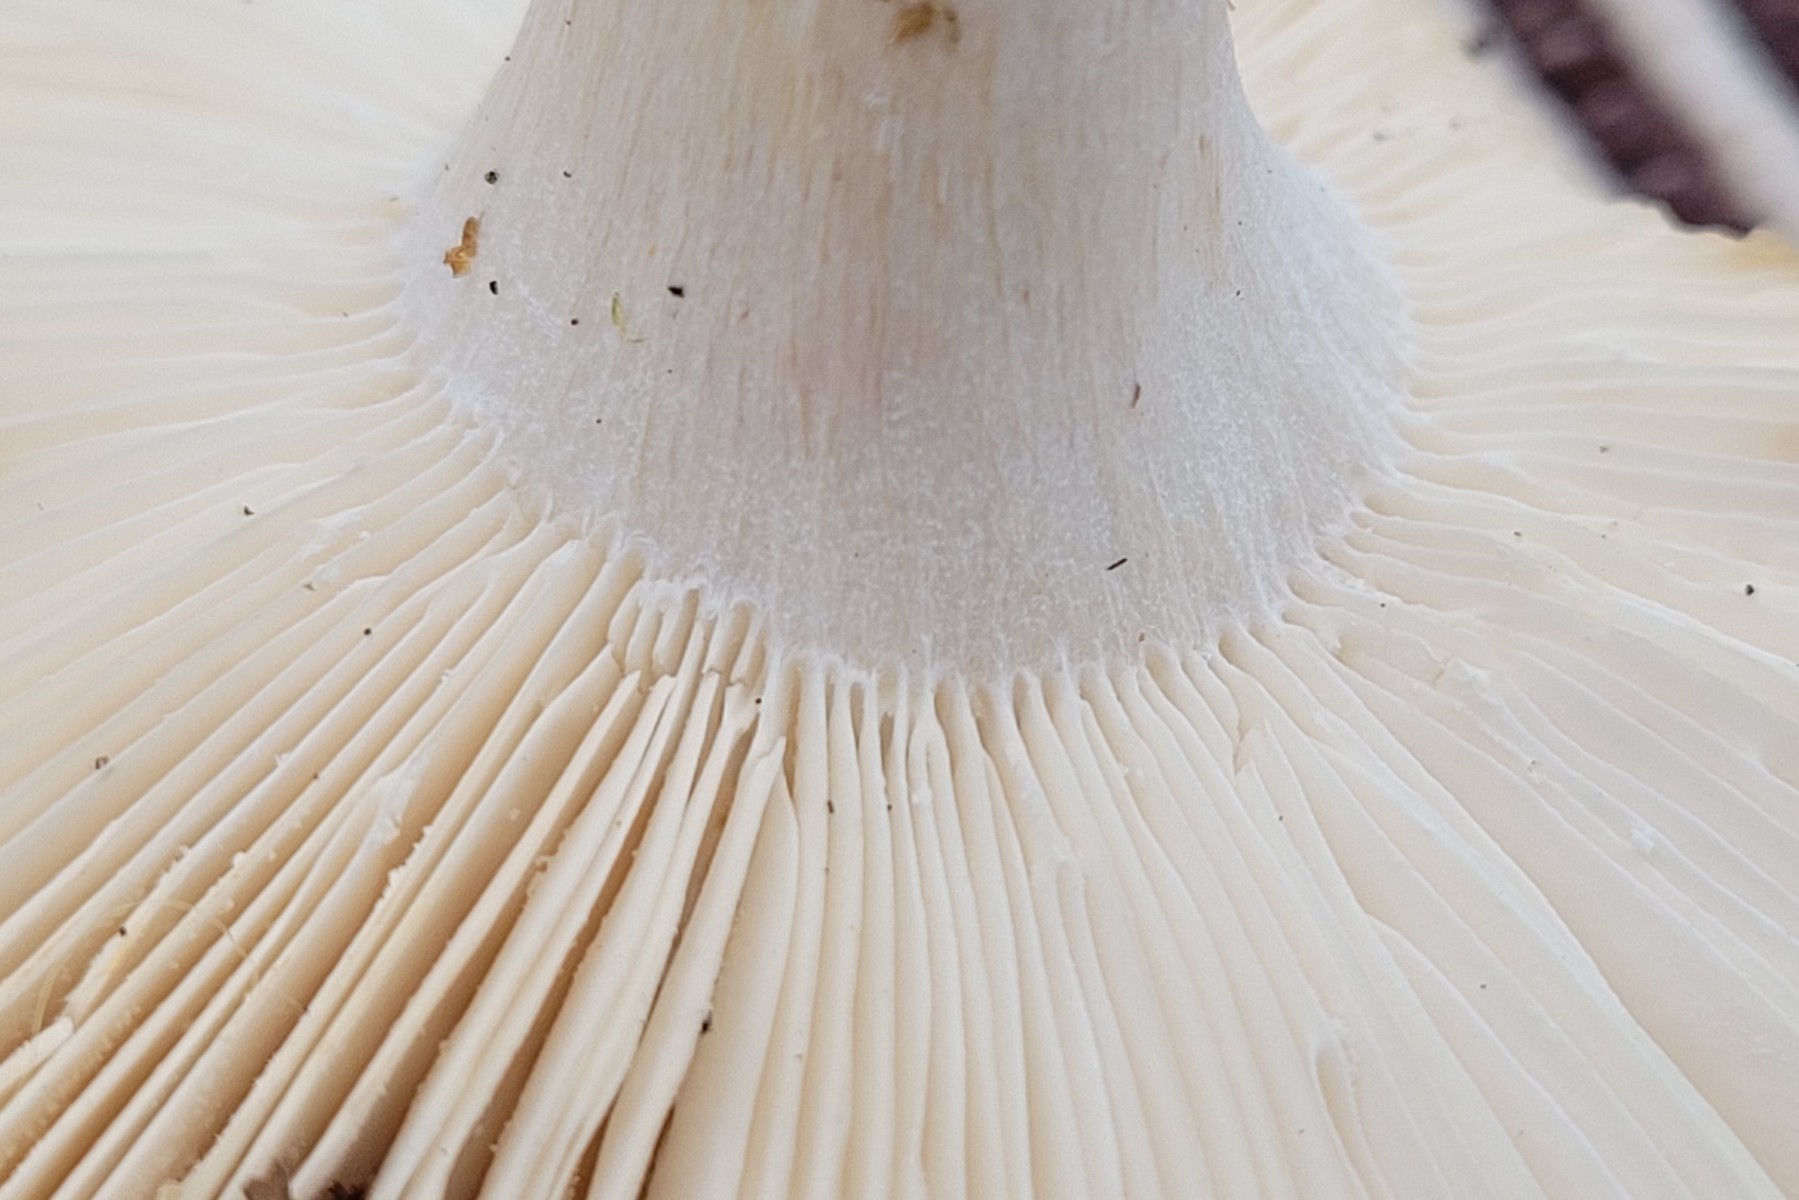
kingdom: Fungi
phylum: Basidiomycota
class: Agaricomycetes
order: Russulales
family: Russulaceae
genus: Russula
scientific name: Russula aurora
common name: rosa skørhat
